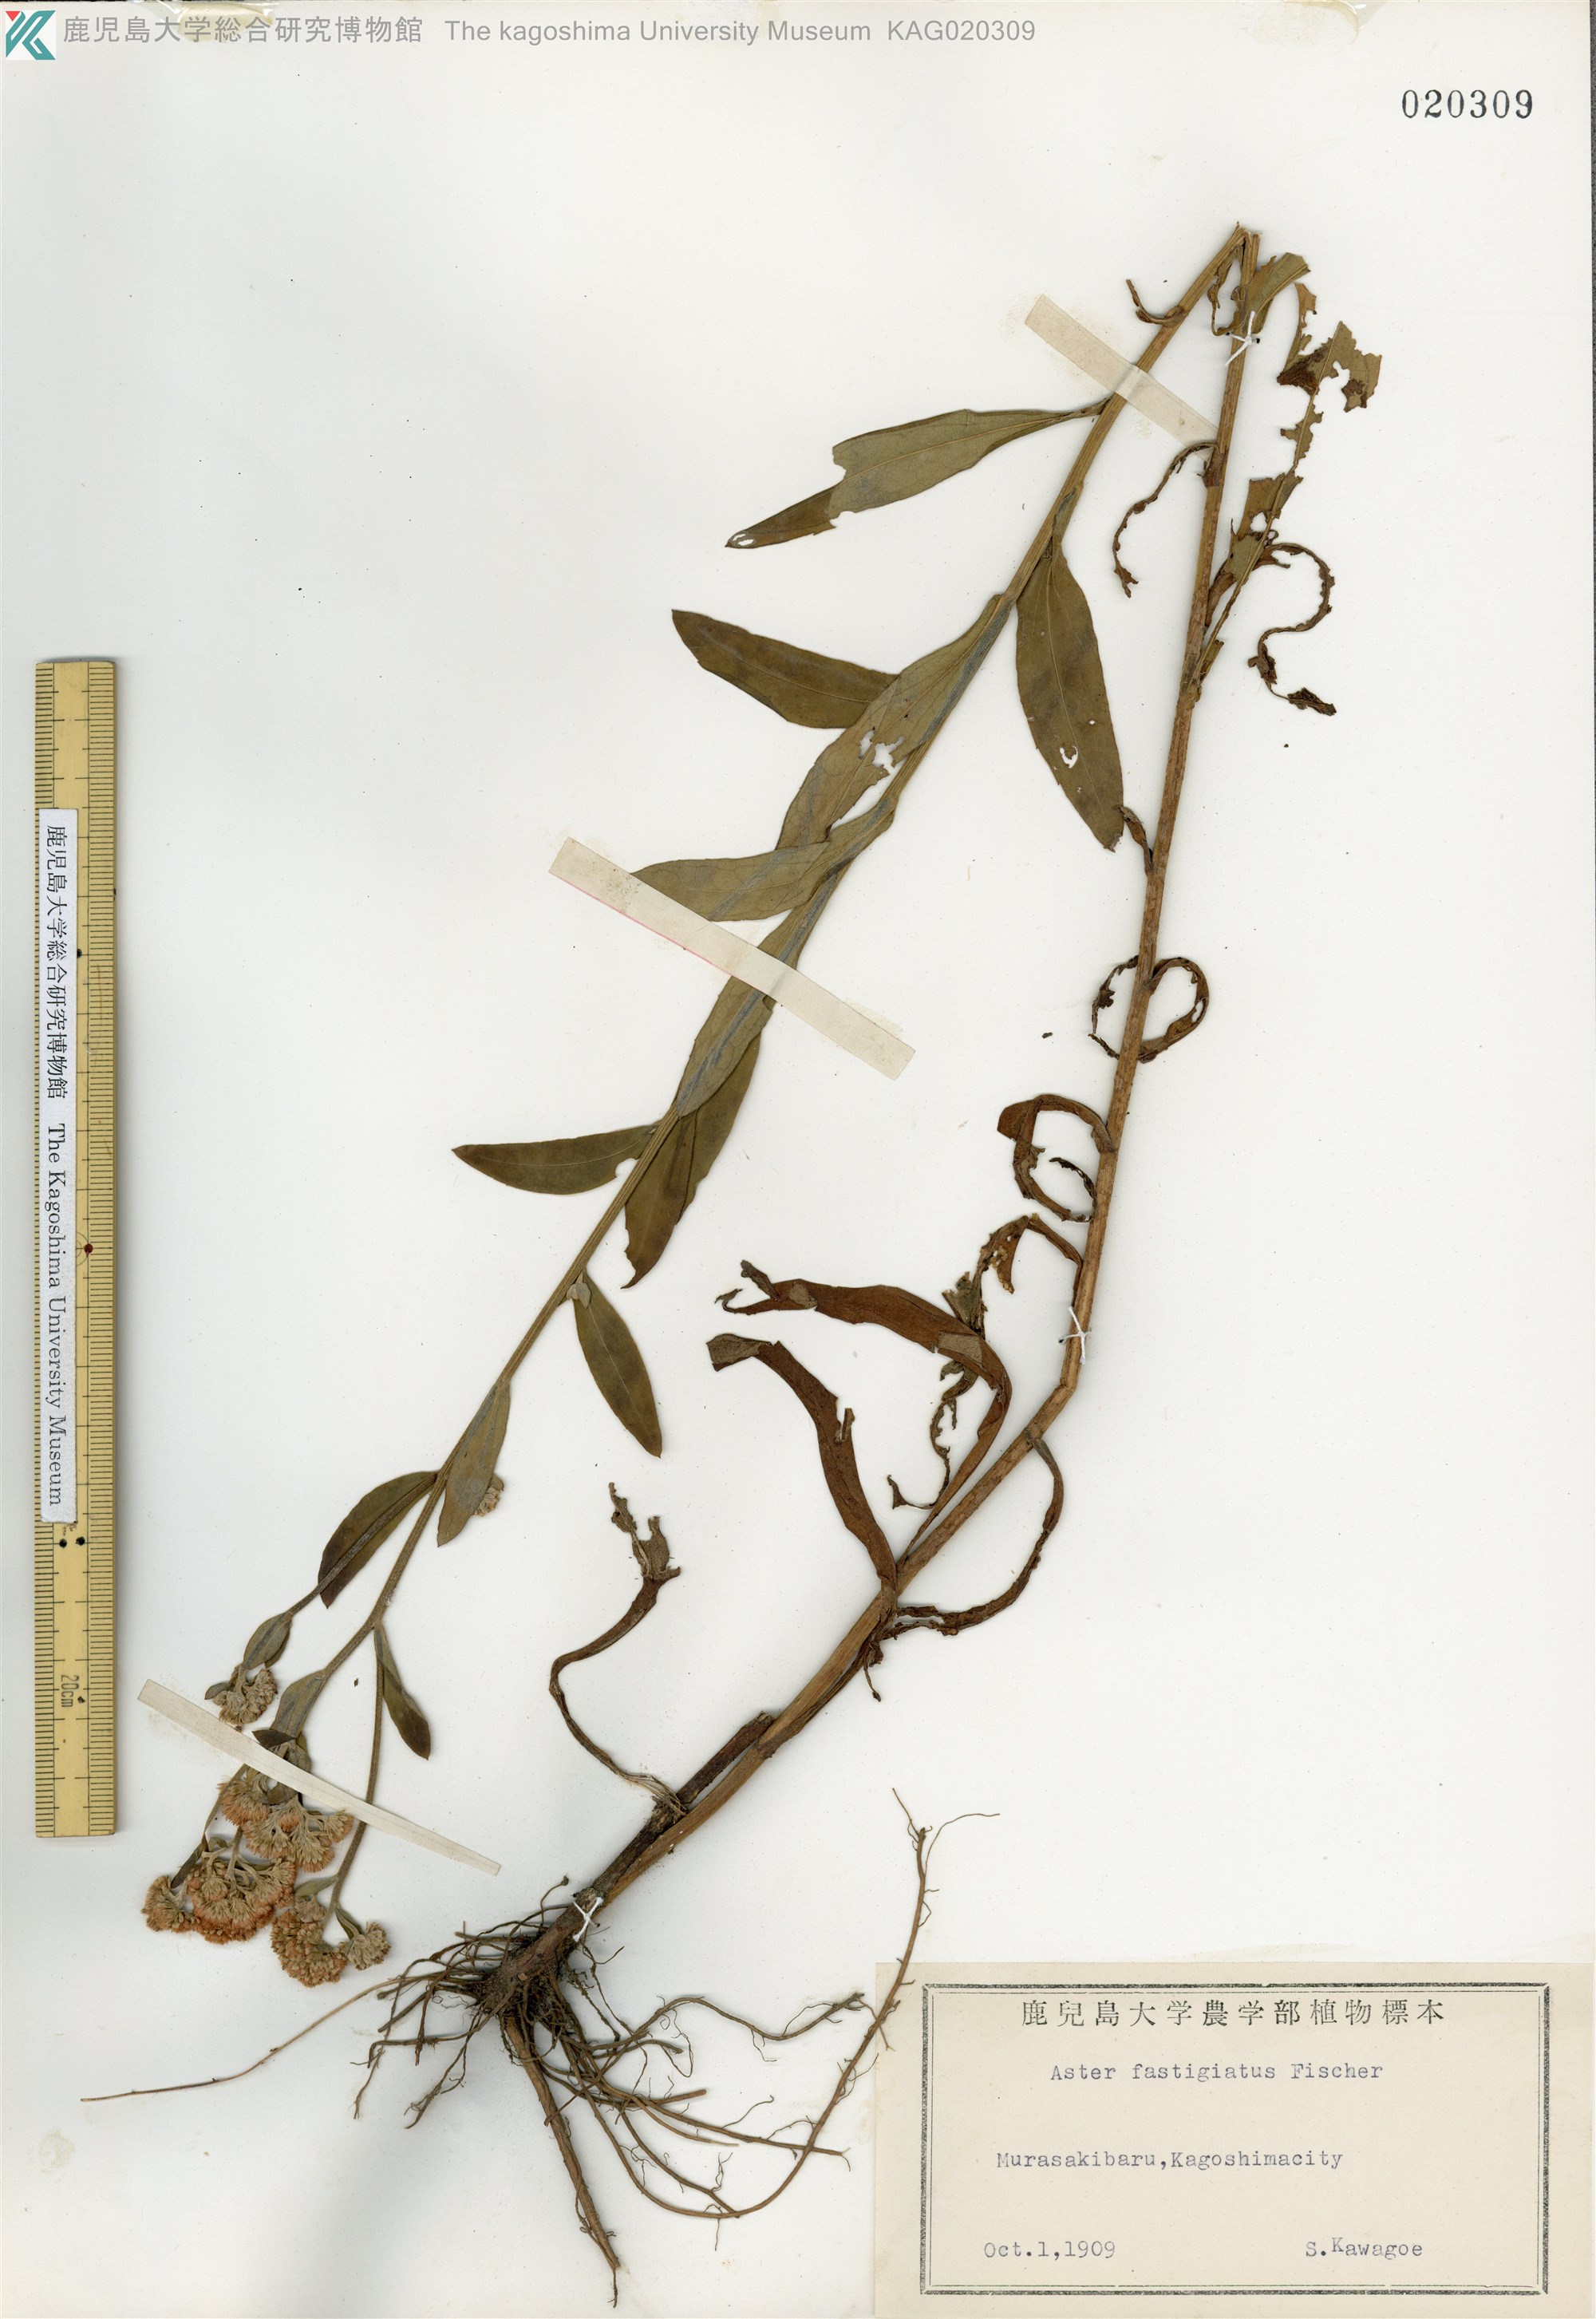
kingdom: Plantae
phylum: Tracheophyta
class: Magnoliopsida
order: Asterales
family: Asteraceae
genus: Turczaninovia
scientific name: Turczaninovia fastigiata
